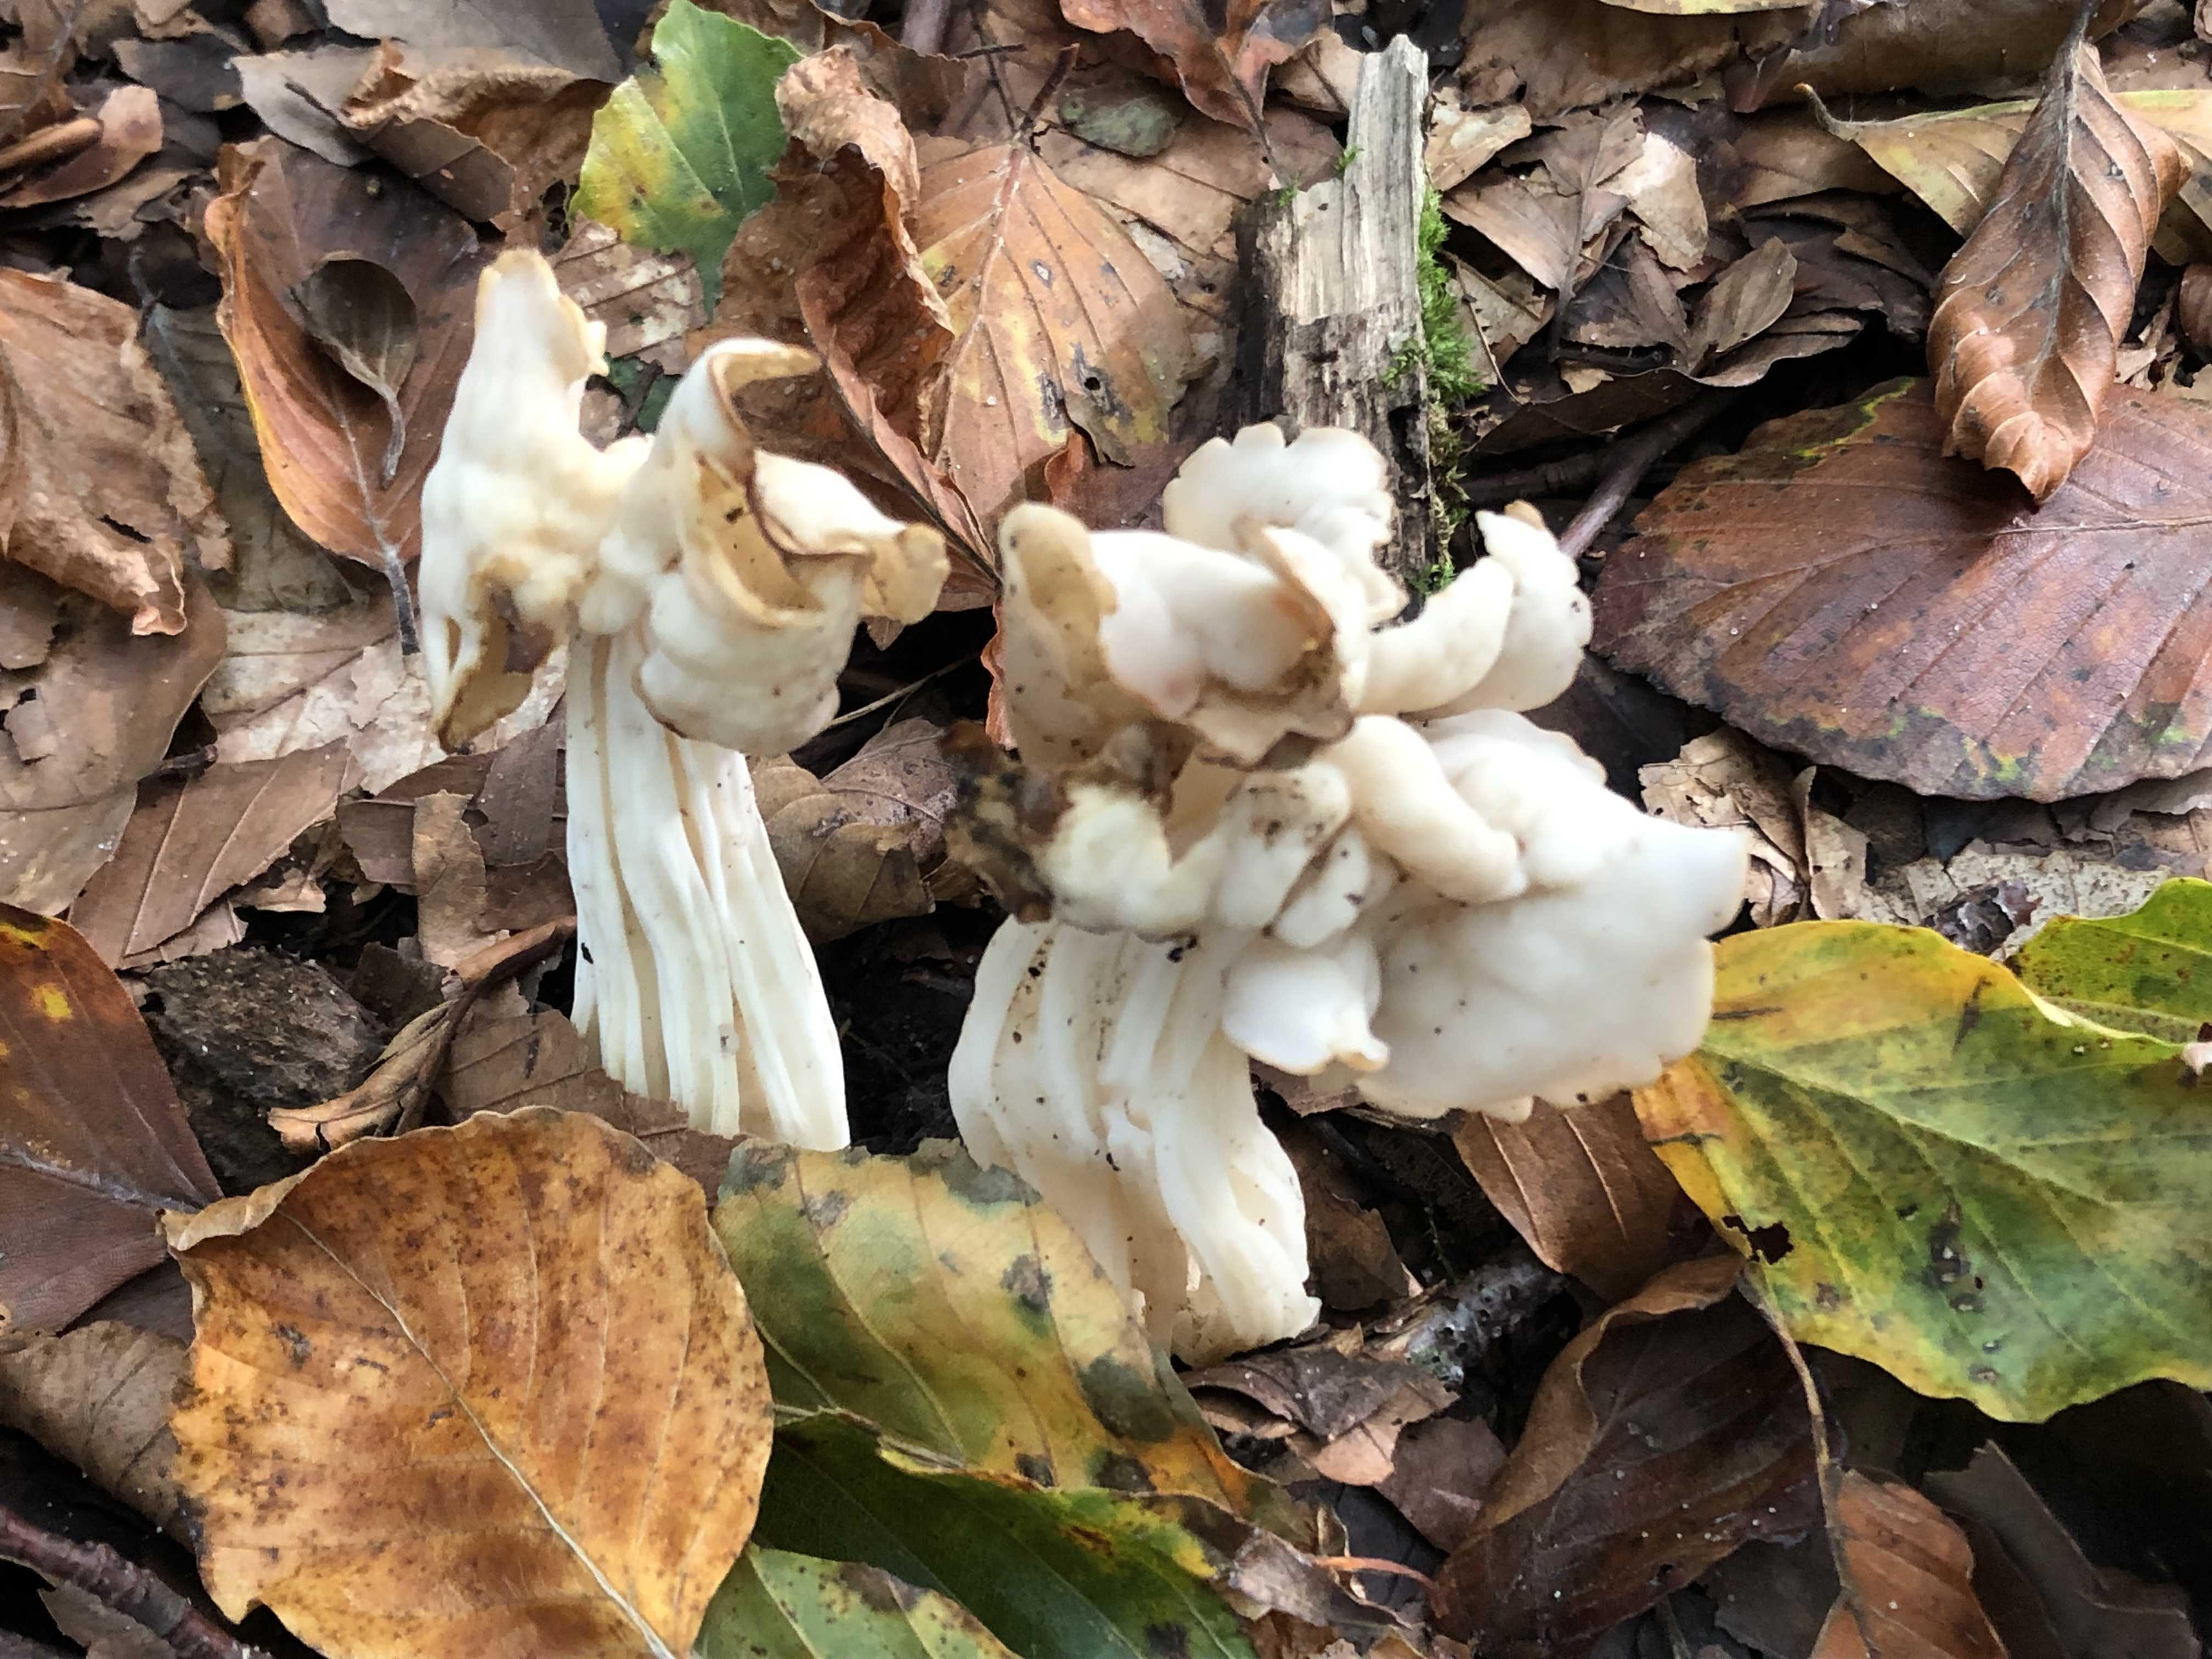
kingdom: Fungi
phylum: Ascomycota
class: Pezizomycetes
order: Pezizales
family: Helvellaceae
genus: Helvella
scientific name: Helvella crispa
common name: kruset foldhat
